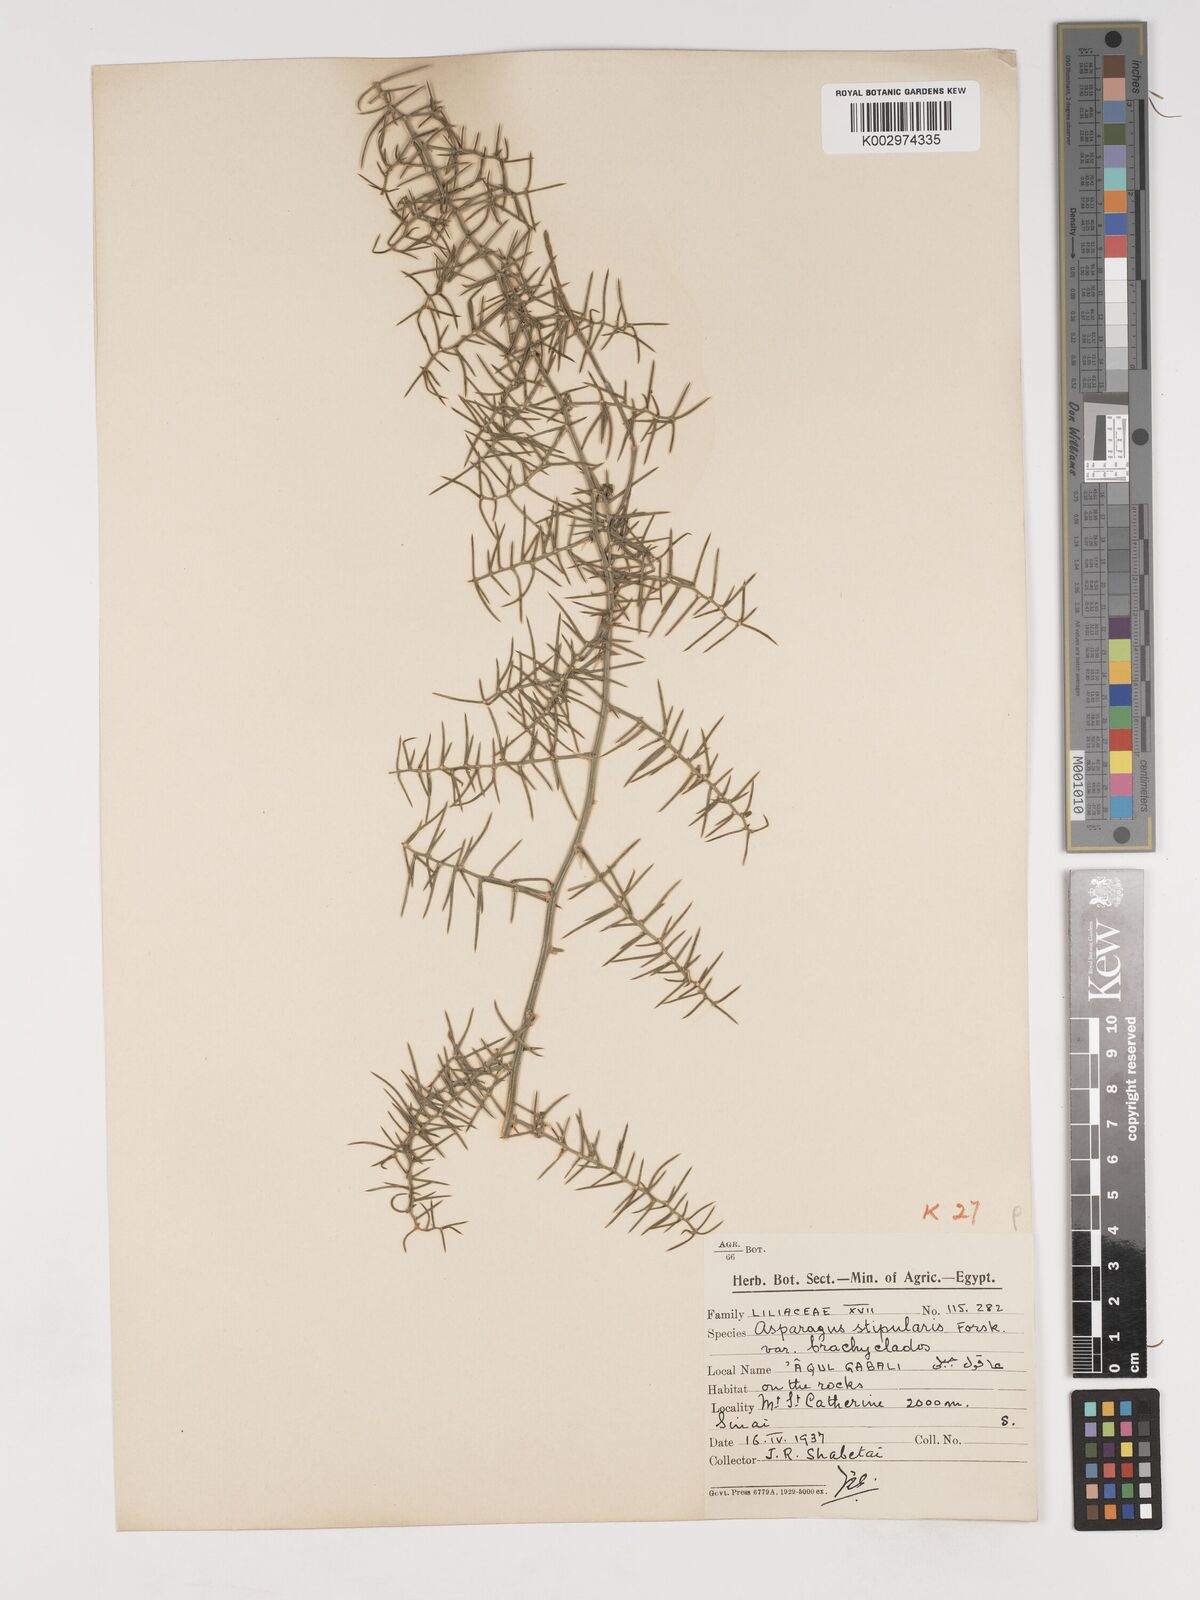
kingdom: Plantae
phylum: Tracheophyta
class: Liliopsida
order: Asparagales
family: Asparagaceae
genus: Asparagus
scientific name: Asparagus horridus
